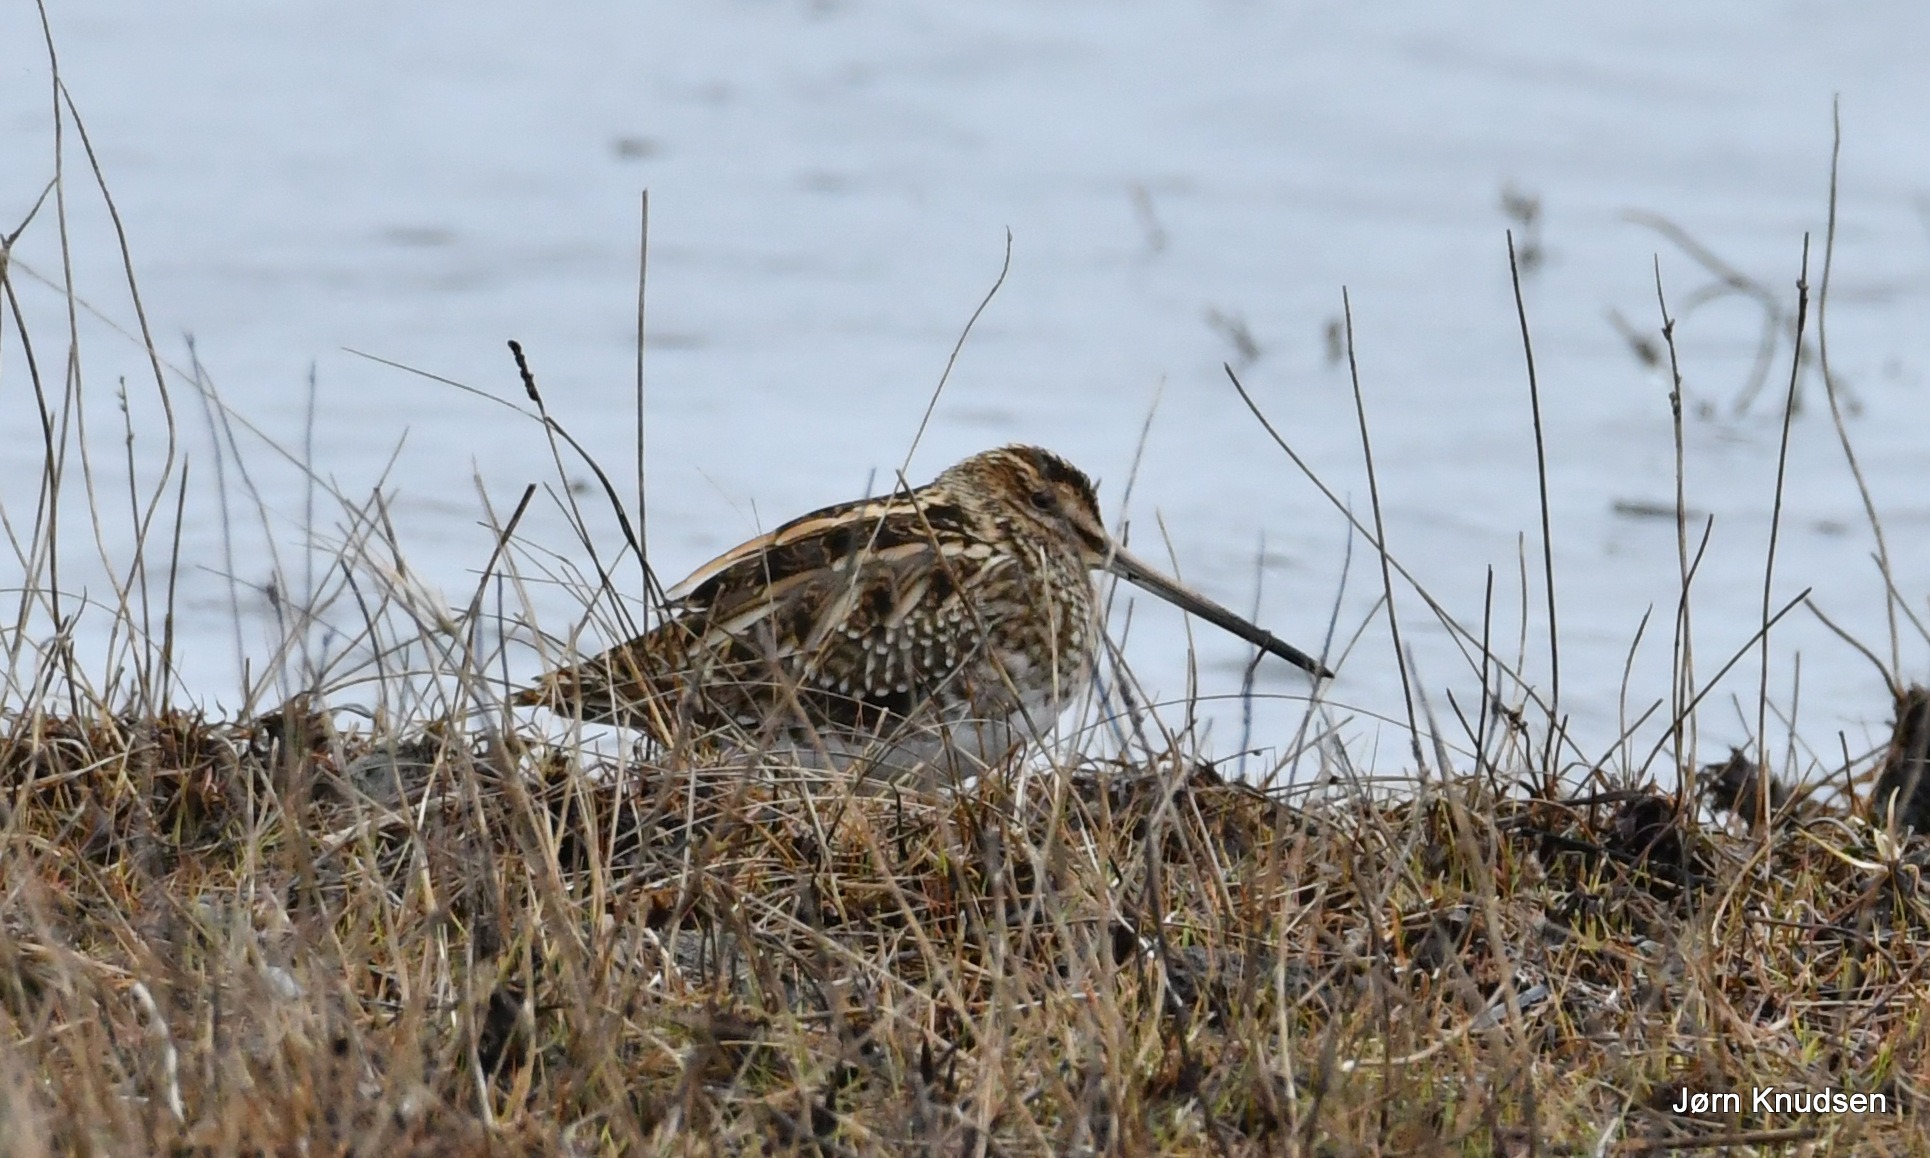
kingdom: Animalia
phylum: Chordata
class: Aves
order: Charadriiformes
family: Scolopacidae
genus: Gallinago
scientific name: Gallinago gallinago
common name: Dobbeltbekkasin
